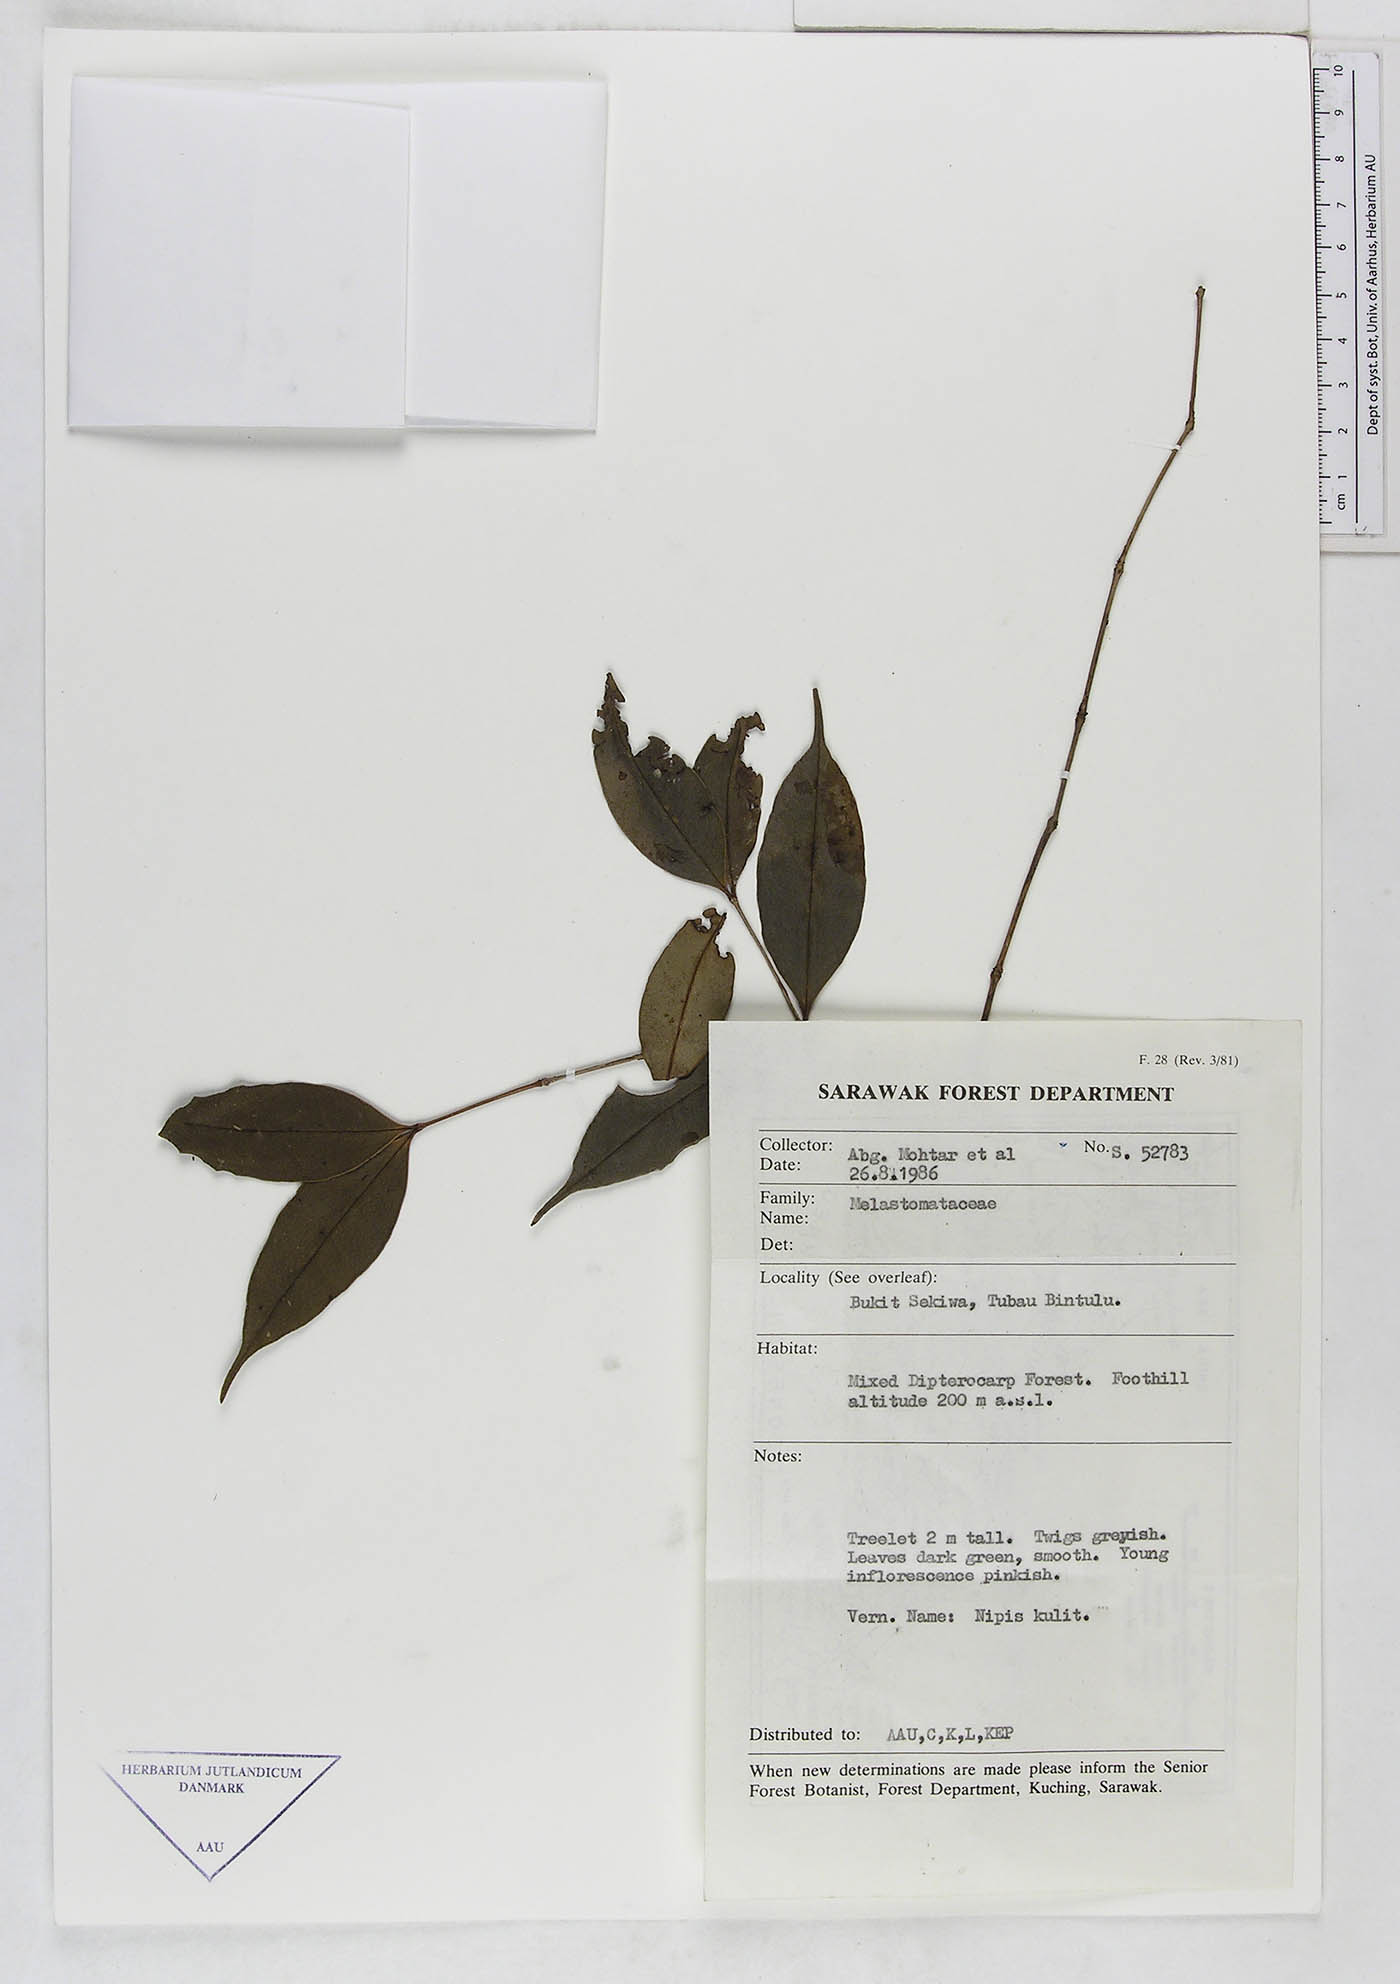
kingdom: Plantae
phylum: Tracheophyta
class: Magnoliopsida
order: Myrtales
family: Melastomataceae
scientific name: Melastomataceae
